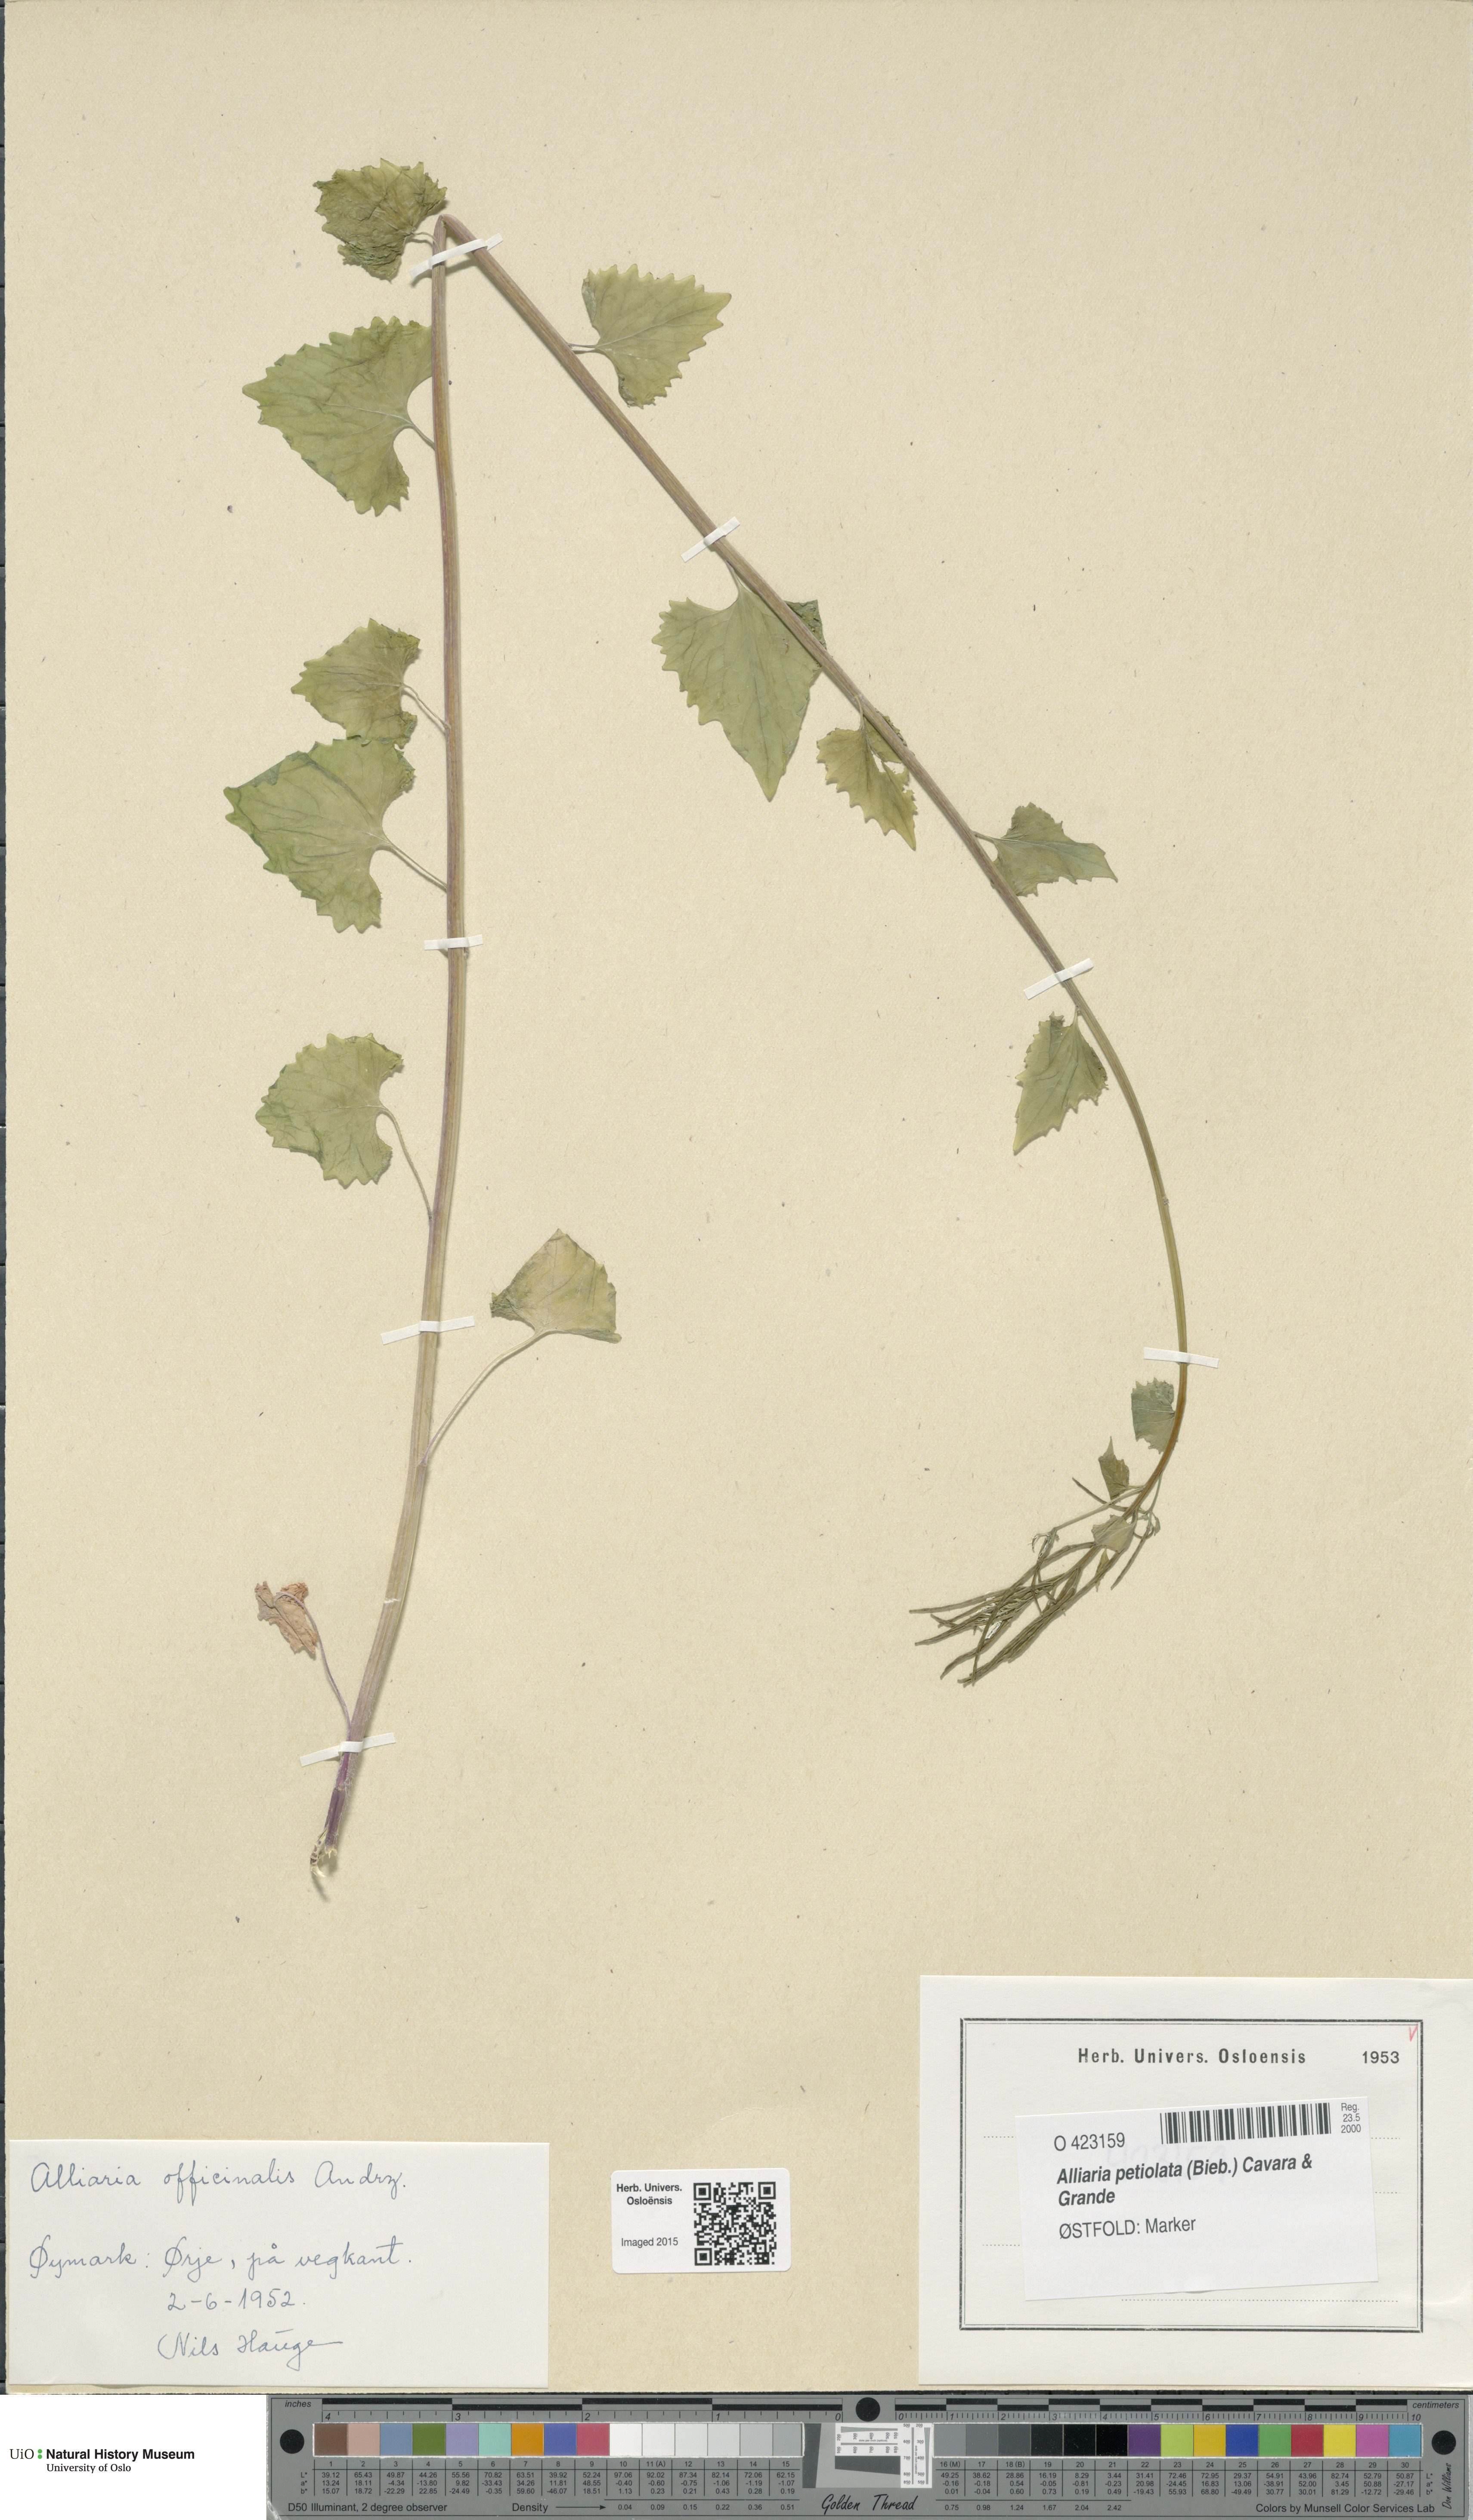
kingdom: Plantae
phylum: Tracheophyta
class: Magnoliopsida
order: Brassicales
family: Brassicaceae
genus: Alliaria
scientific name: Alliaria petiolata
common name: Garlic mustard
